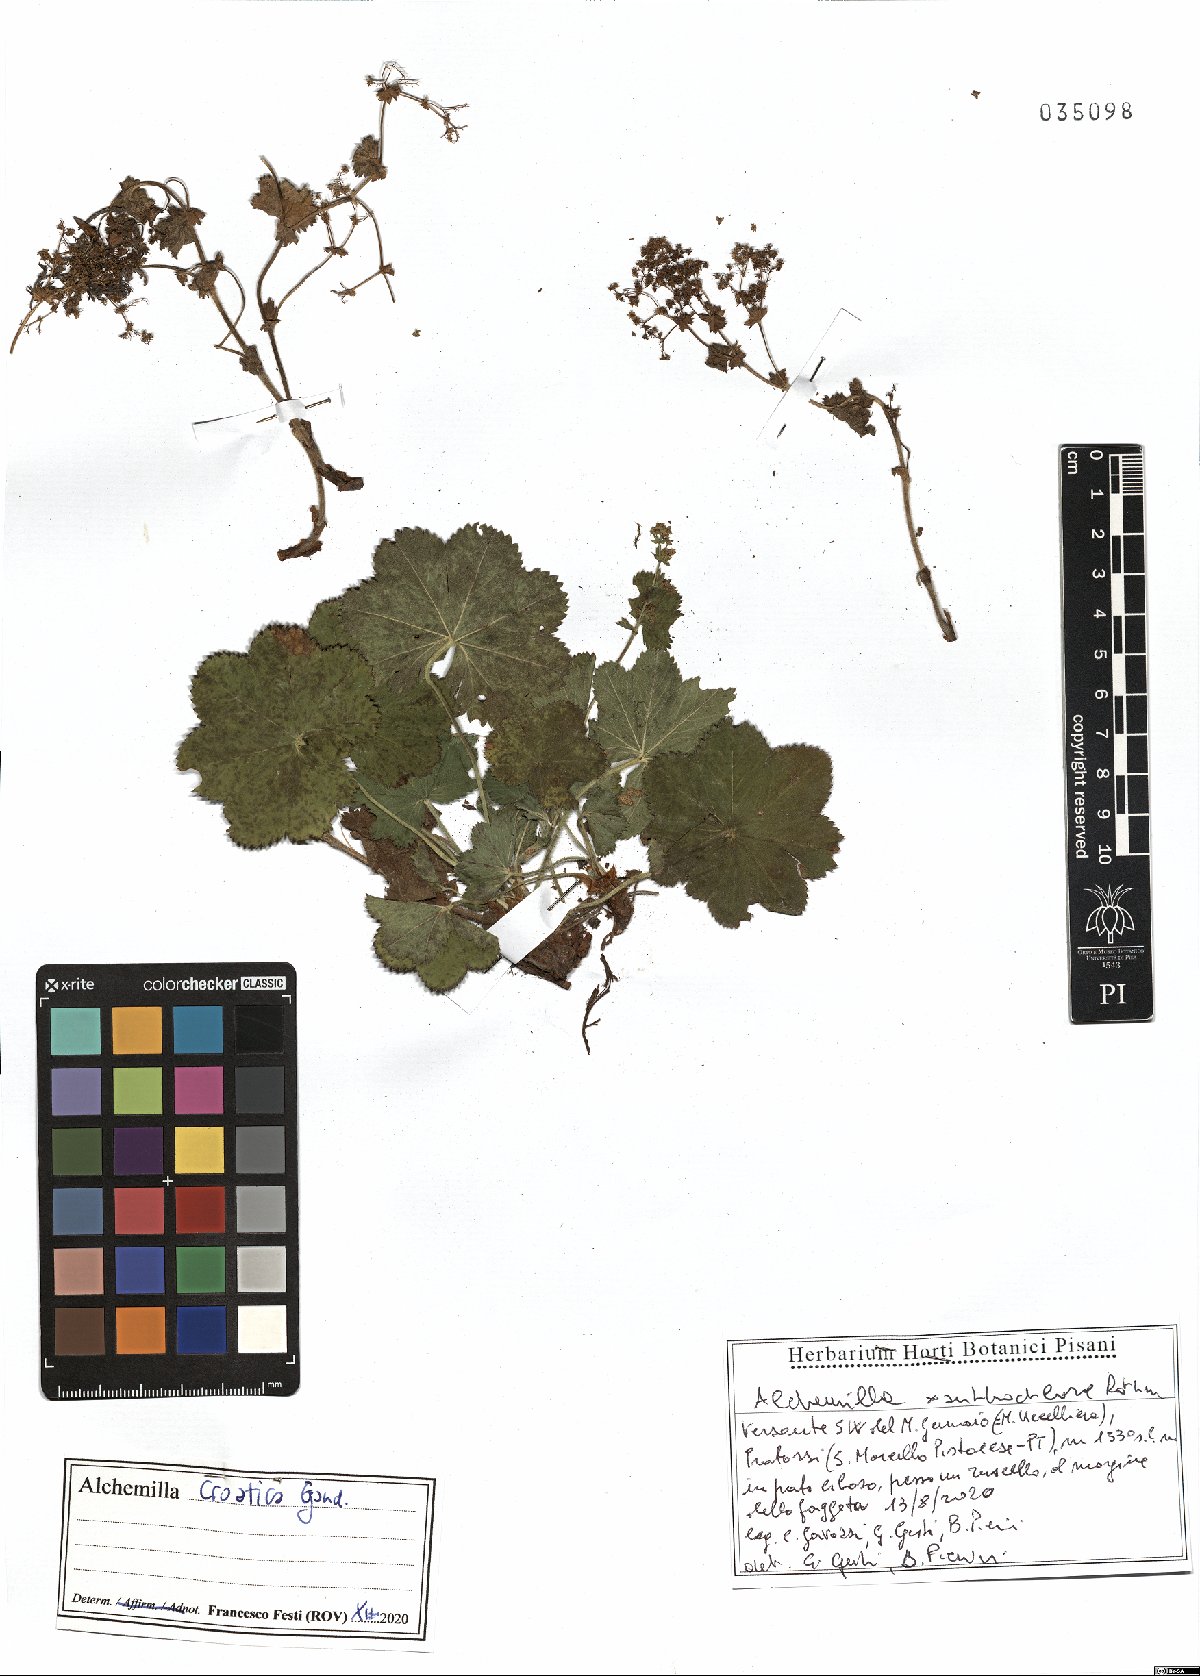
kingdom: Plantae
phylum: Tracheophyta
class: Magnoliopsida
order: Rosales
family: Rosaceae
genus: Alchemilla
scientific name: Alchemilla croatica
